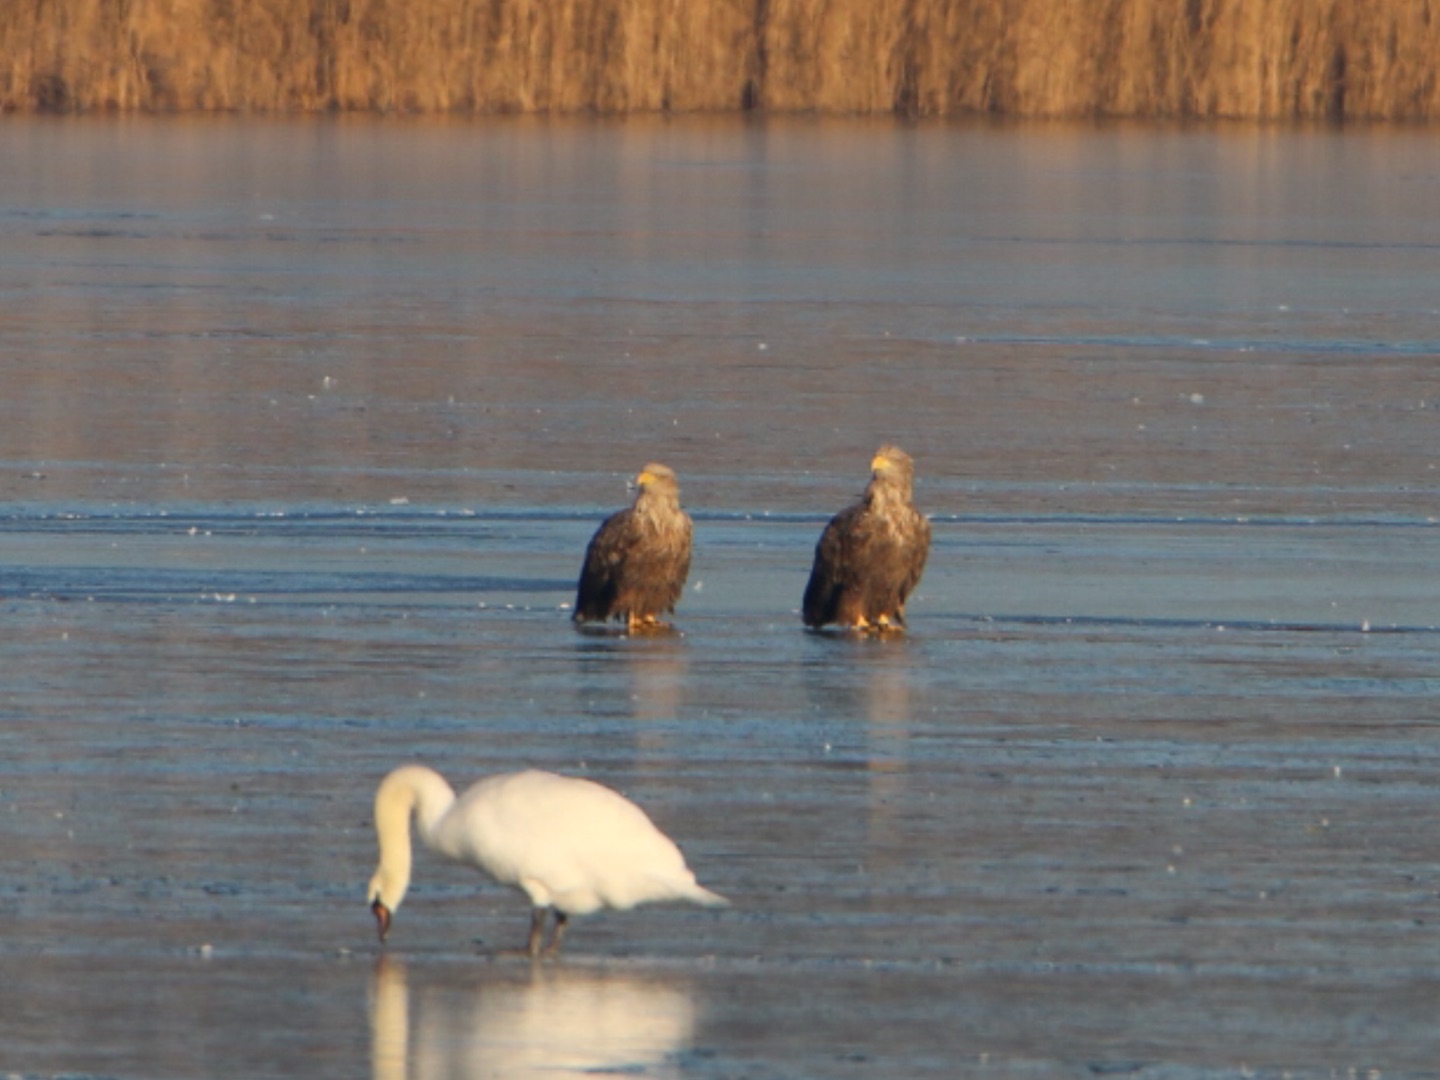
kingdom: Animalia
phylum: Chordata
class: Aves
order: Accipitriformes
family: Accipitridae
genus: Haliaeetus
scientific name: Haliaeetus albicilla
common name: Havørn
